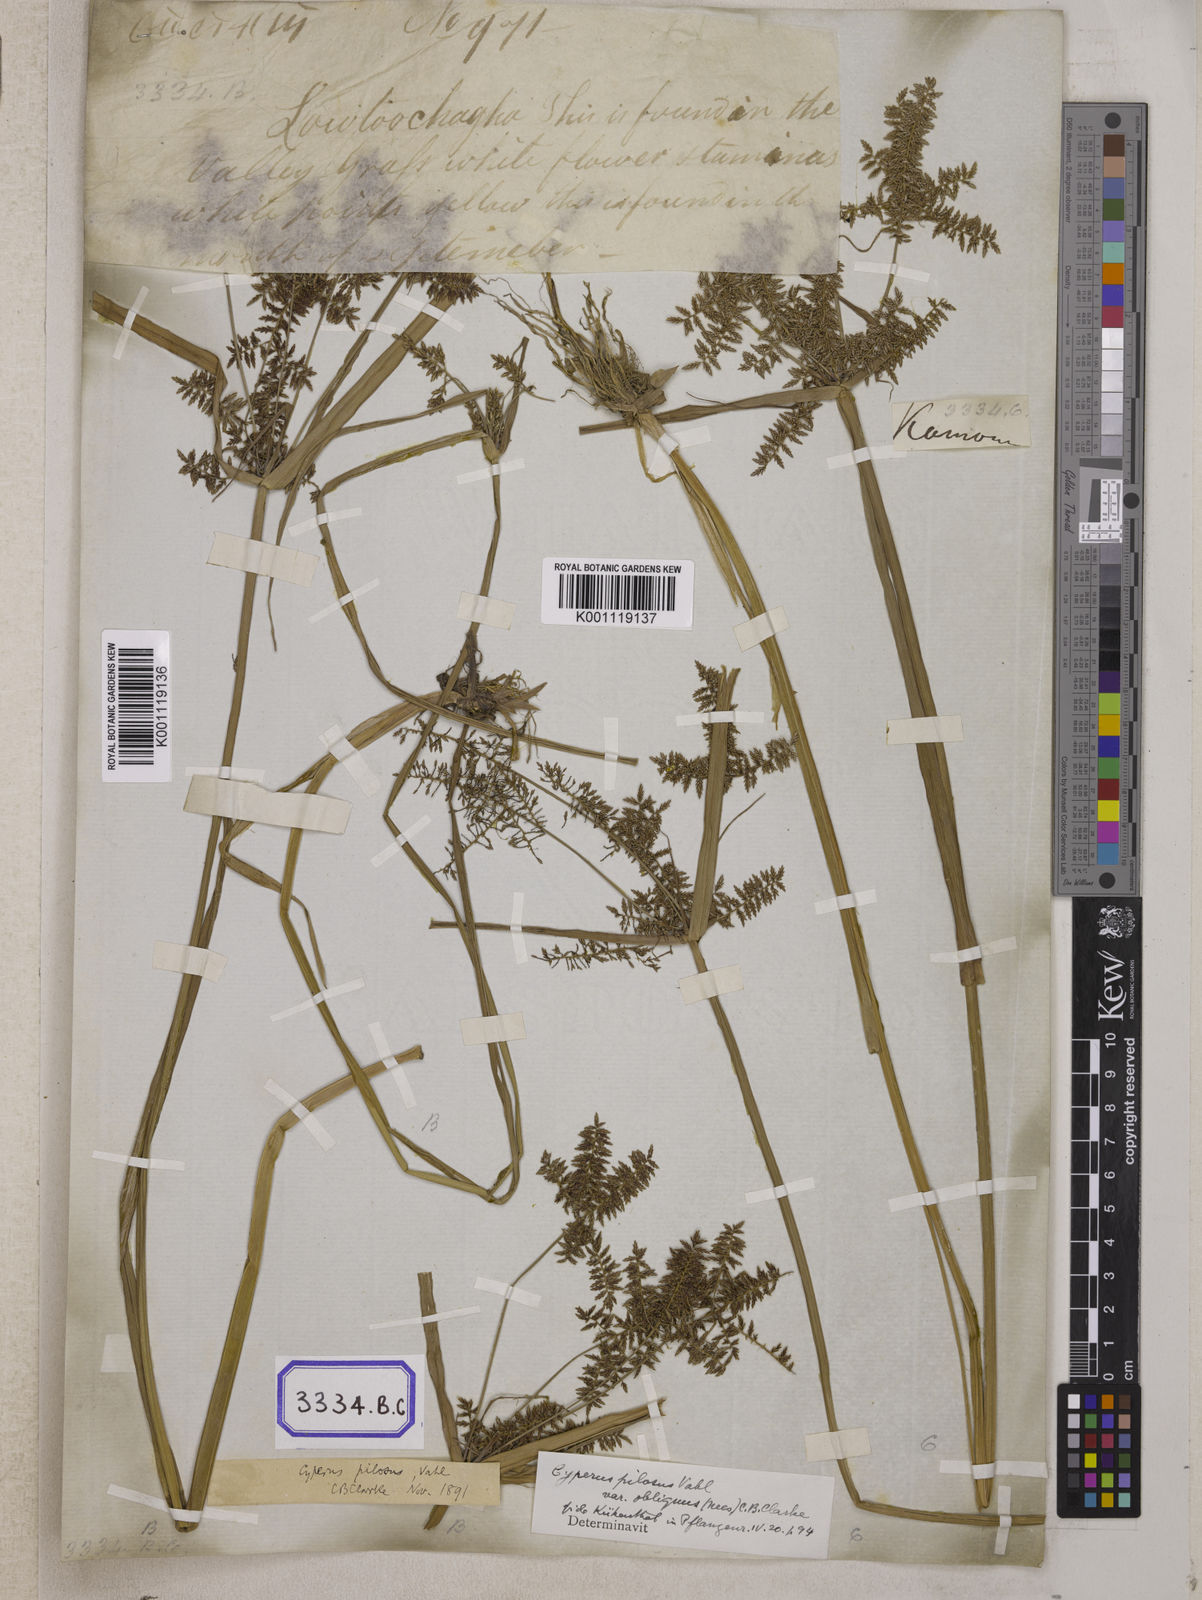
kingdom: Plantae
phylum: Tracheophyta
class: Liliopsida
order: Poales
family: Cyperaceae
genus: Cyperus
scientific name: Cyperus
